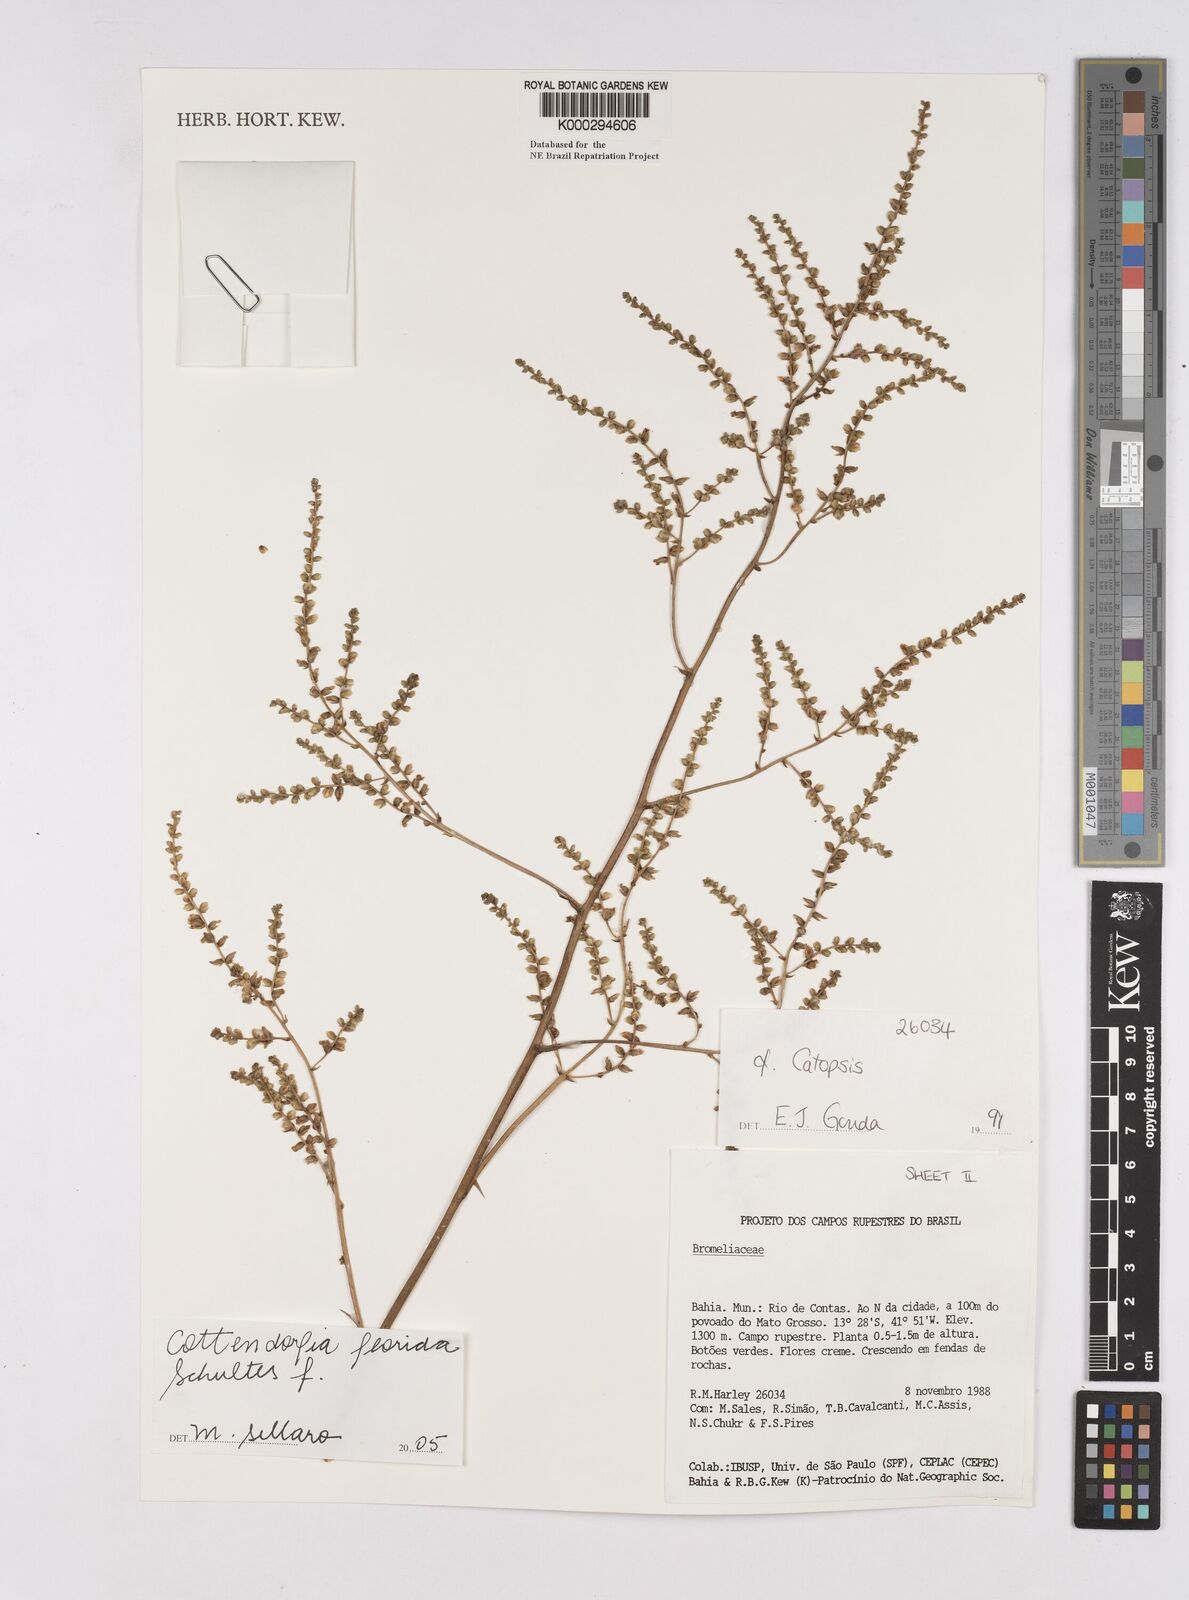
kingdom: Plantae
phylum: Tracheophyta
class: Liliopsida
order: Poales
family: Bromeliaceae
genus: Cottendorfia
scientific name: Cottendorfia florida
